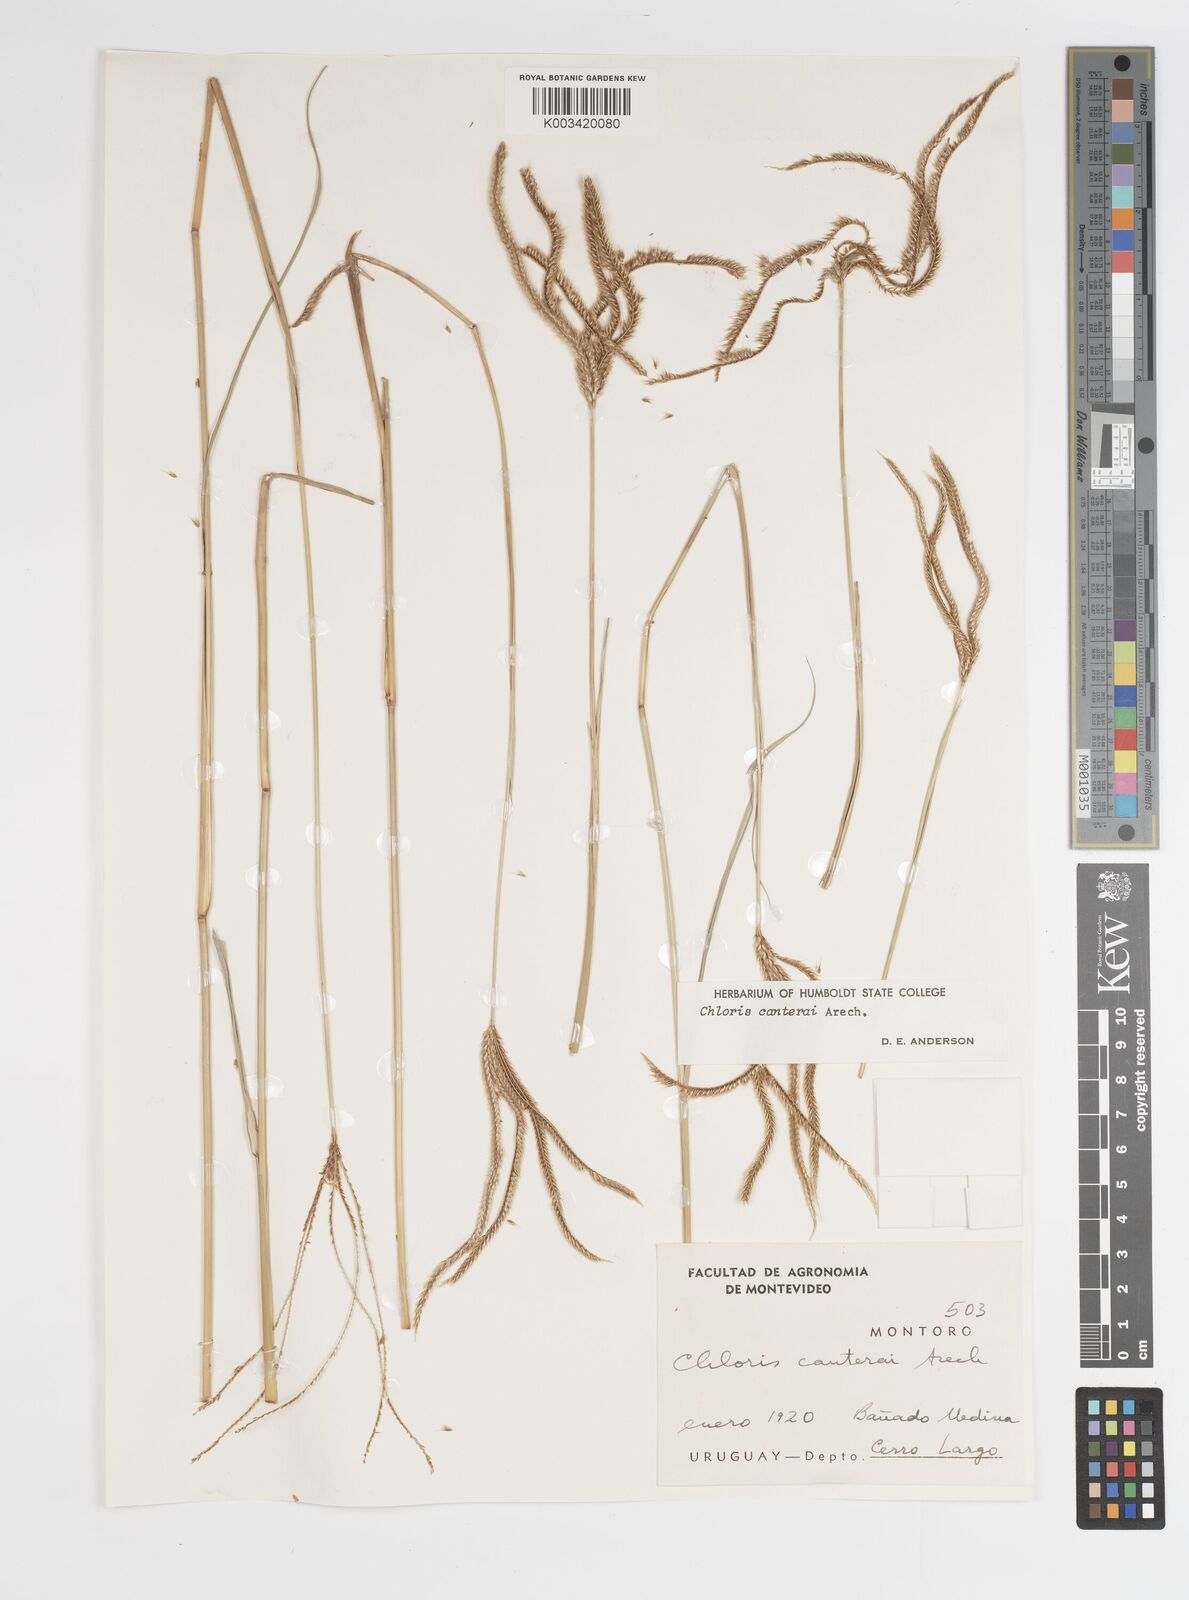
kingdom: Plantae
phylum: Tracheophyta
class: Liliopsida
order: Poales
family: Poaceae
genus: Stapfochloa
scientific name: Stapfochloa canterae
